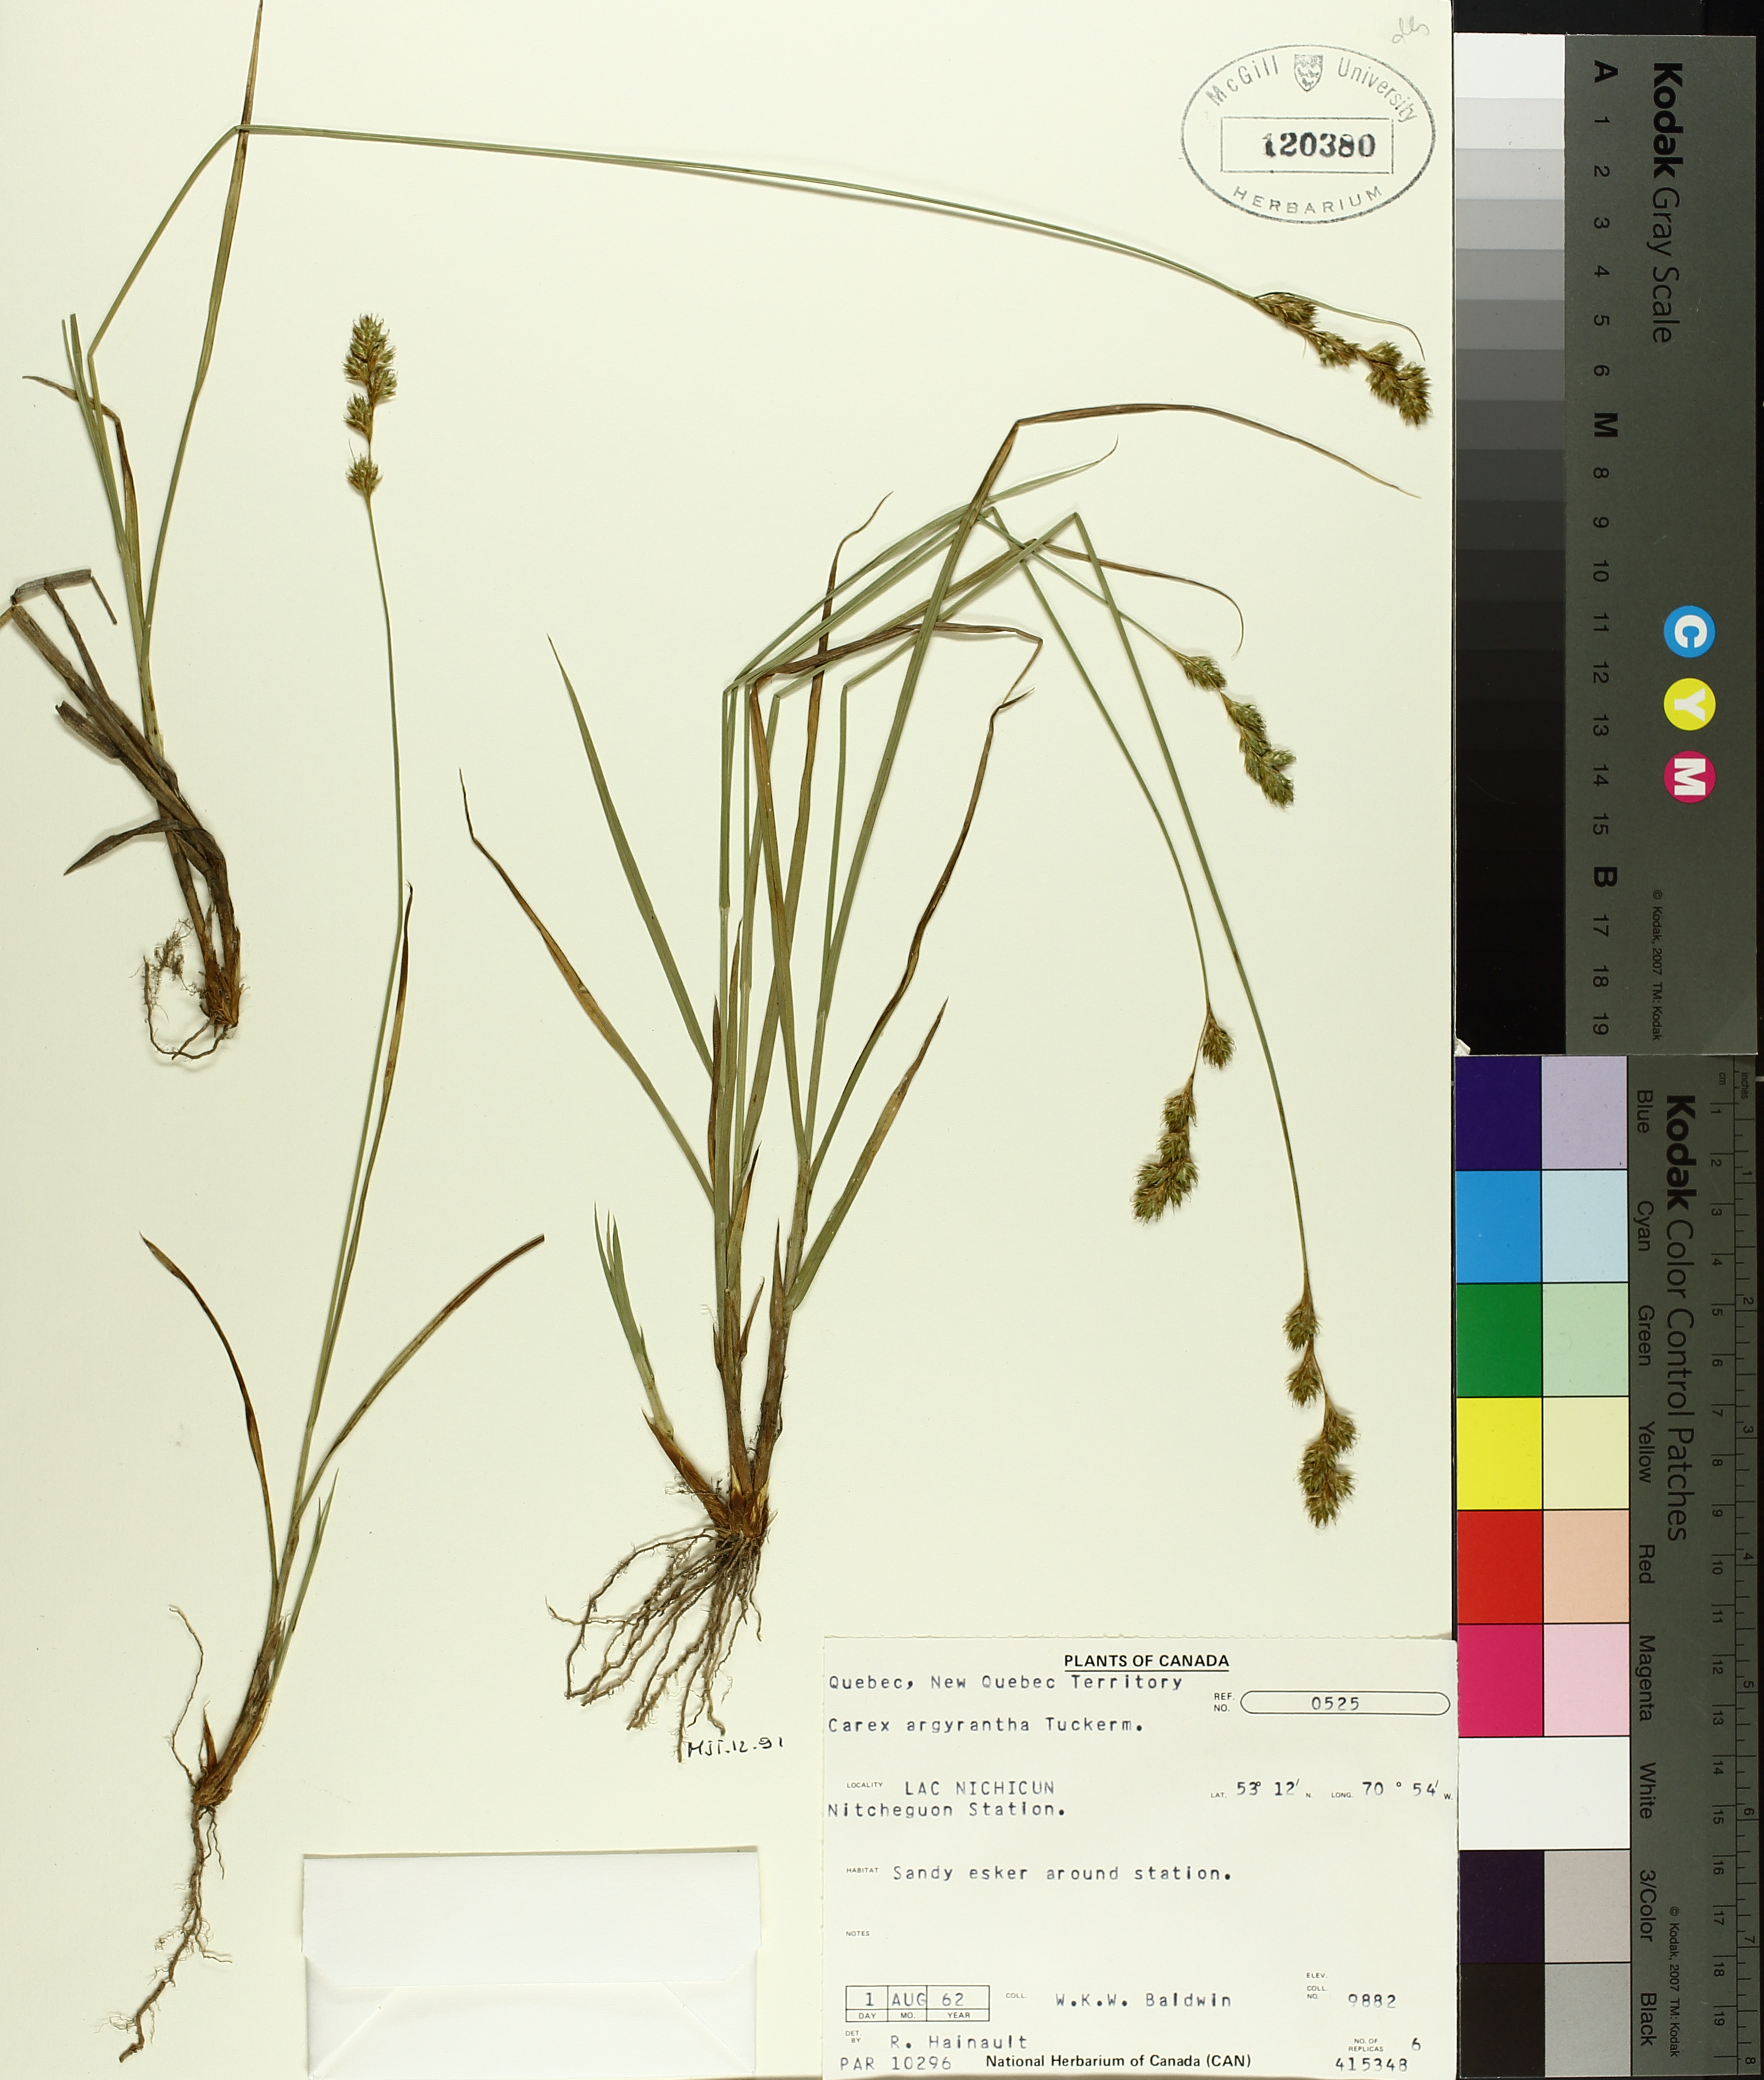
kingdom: Plantae
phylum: Tracheophyta
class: Liliopsida
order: Poales
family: Cyperaceae
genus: Carex
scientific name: Carex argyrantha
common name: Silvery-flowered sedge
